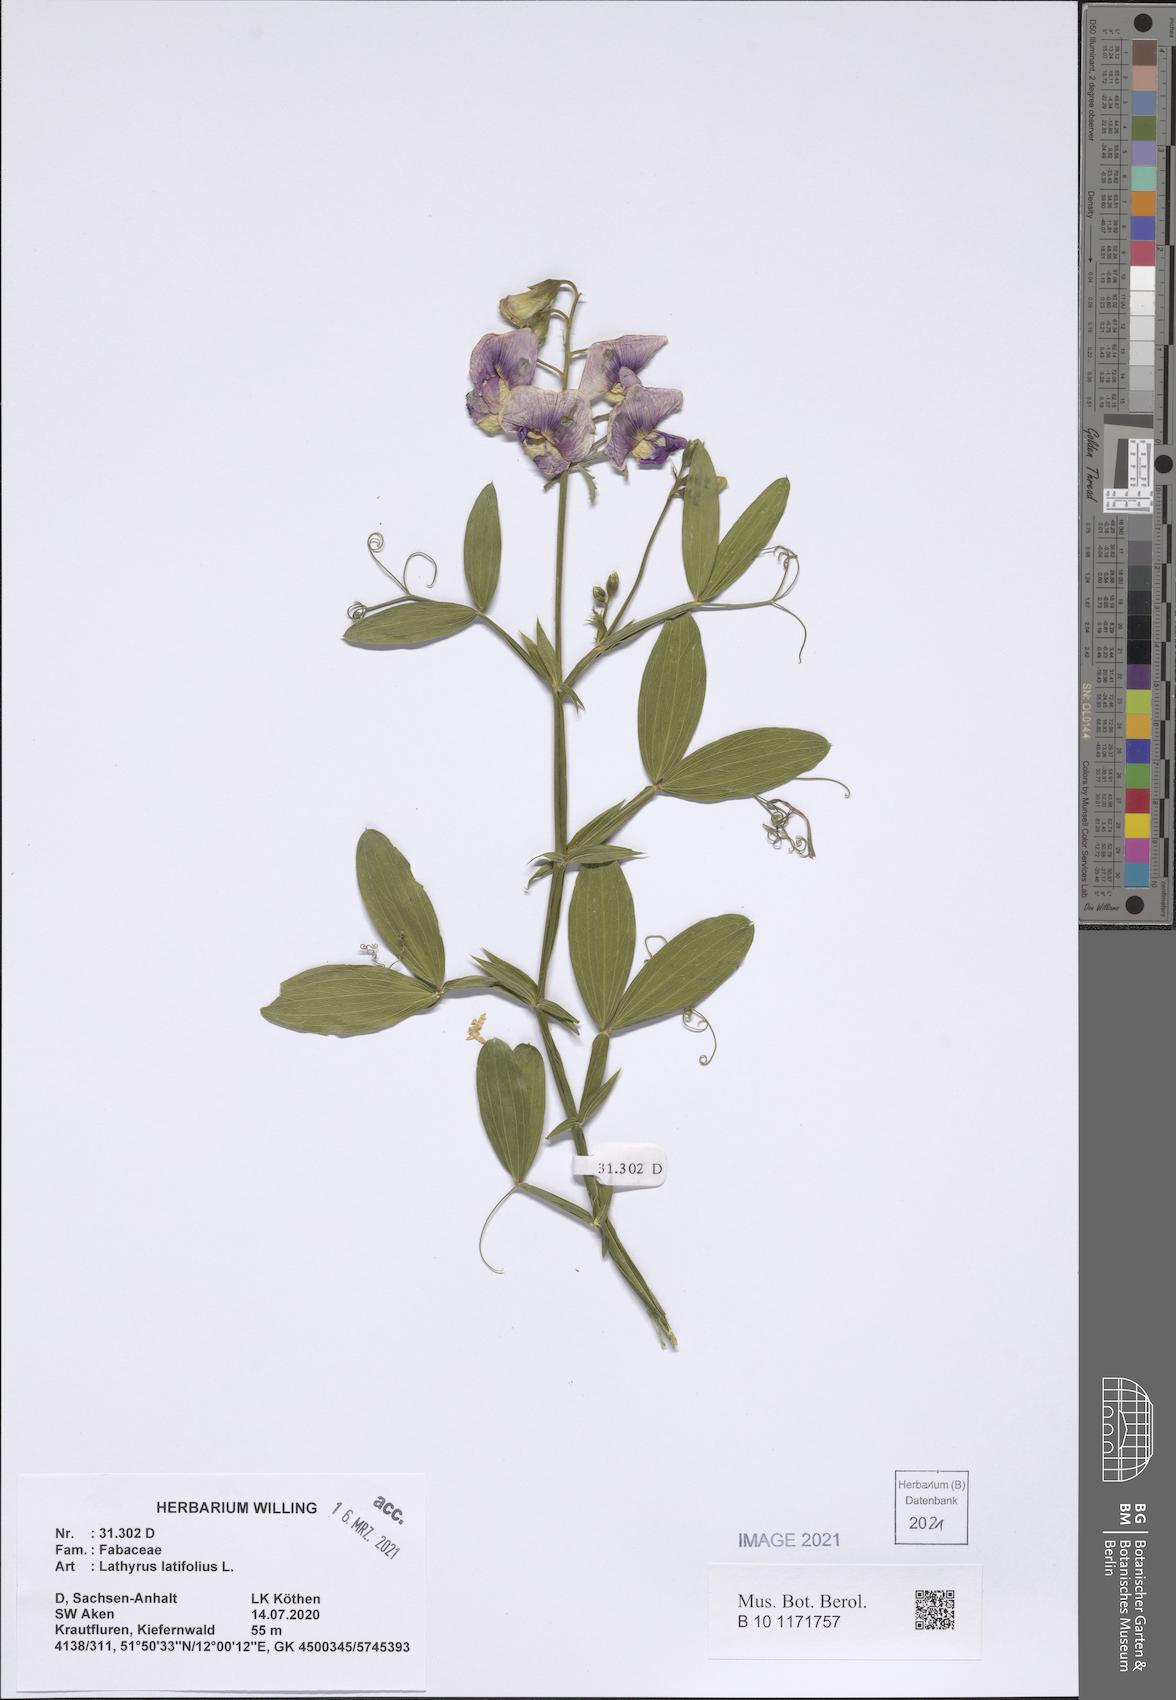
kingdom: Plantae
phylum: Tracheophyta
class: Magnoliopsida
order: Fabales
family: Fabaceae
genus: Lathyrus
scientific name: Lathyrus latifolius
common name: Perennial pea
